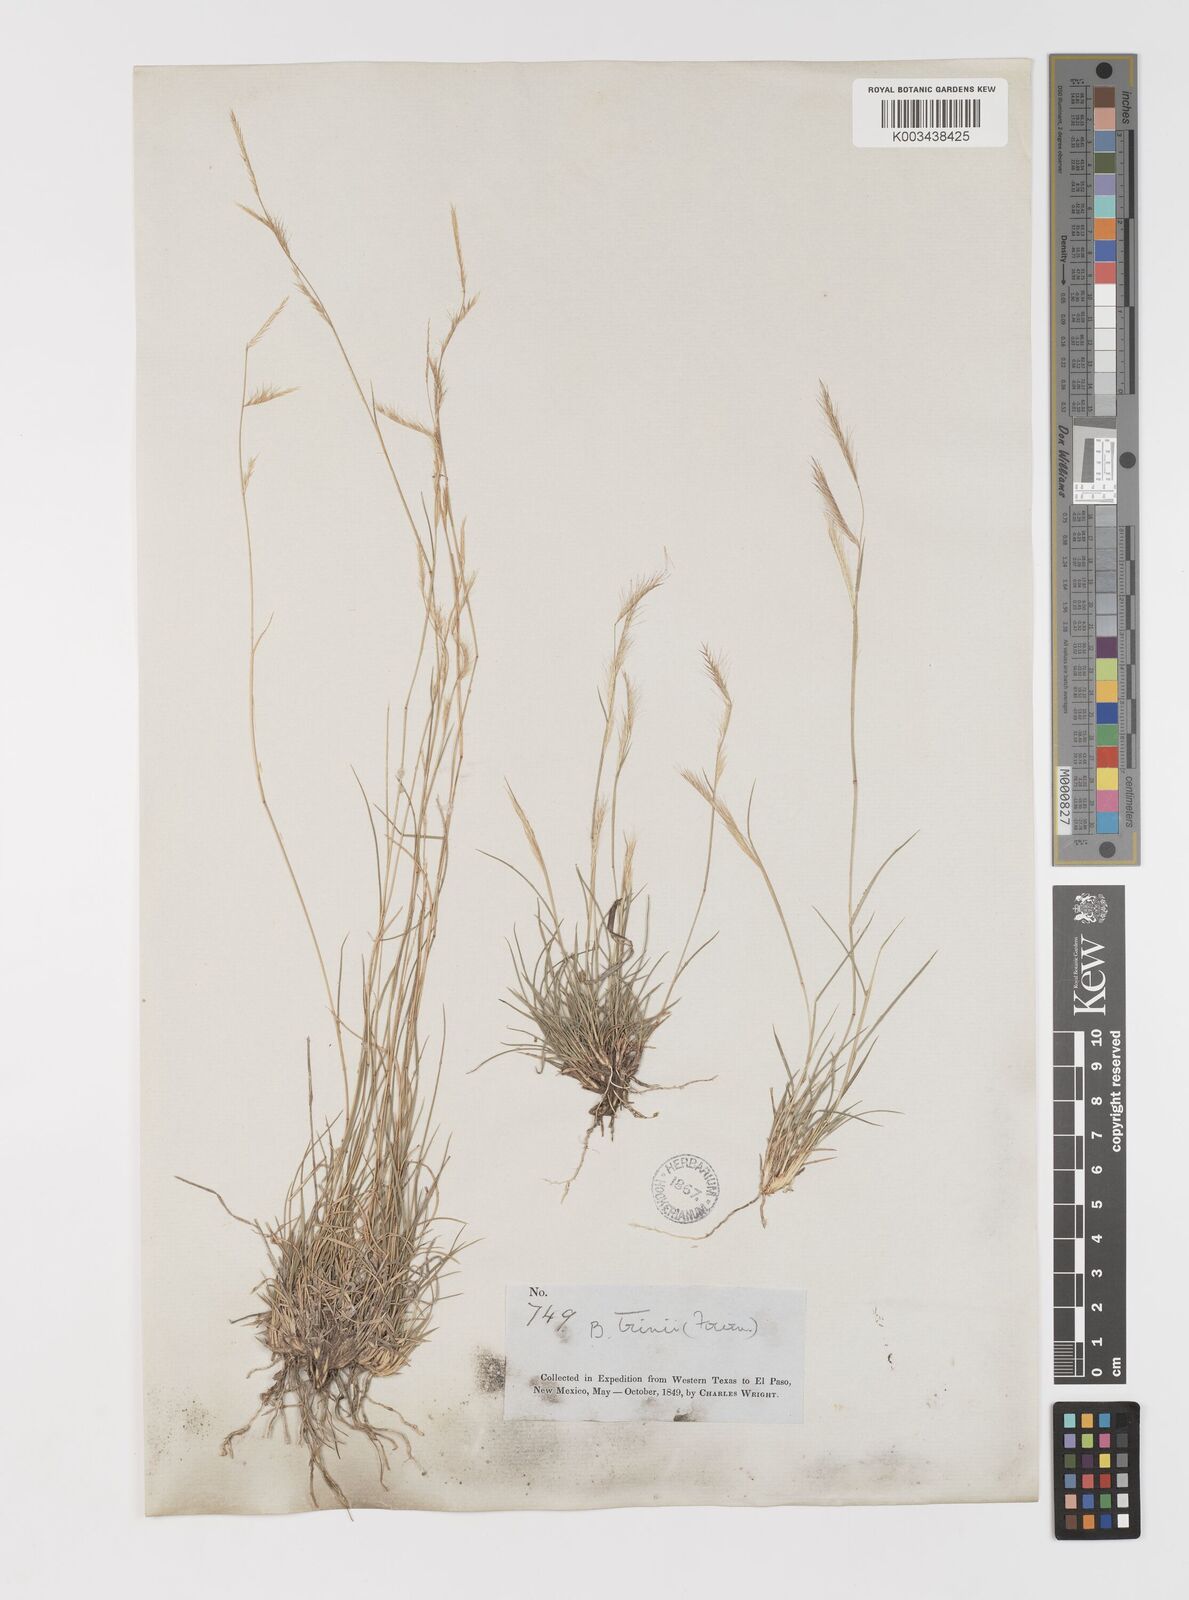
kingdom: Plantae
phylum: Tracheophyta
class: Liliopsida
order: Poales
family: Poaceae
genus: Bouteloua
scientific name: Bouteloua trifida
